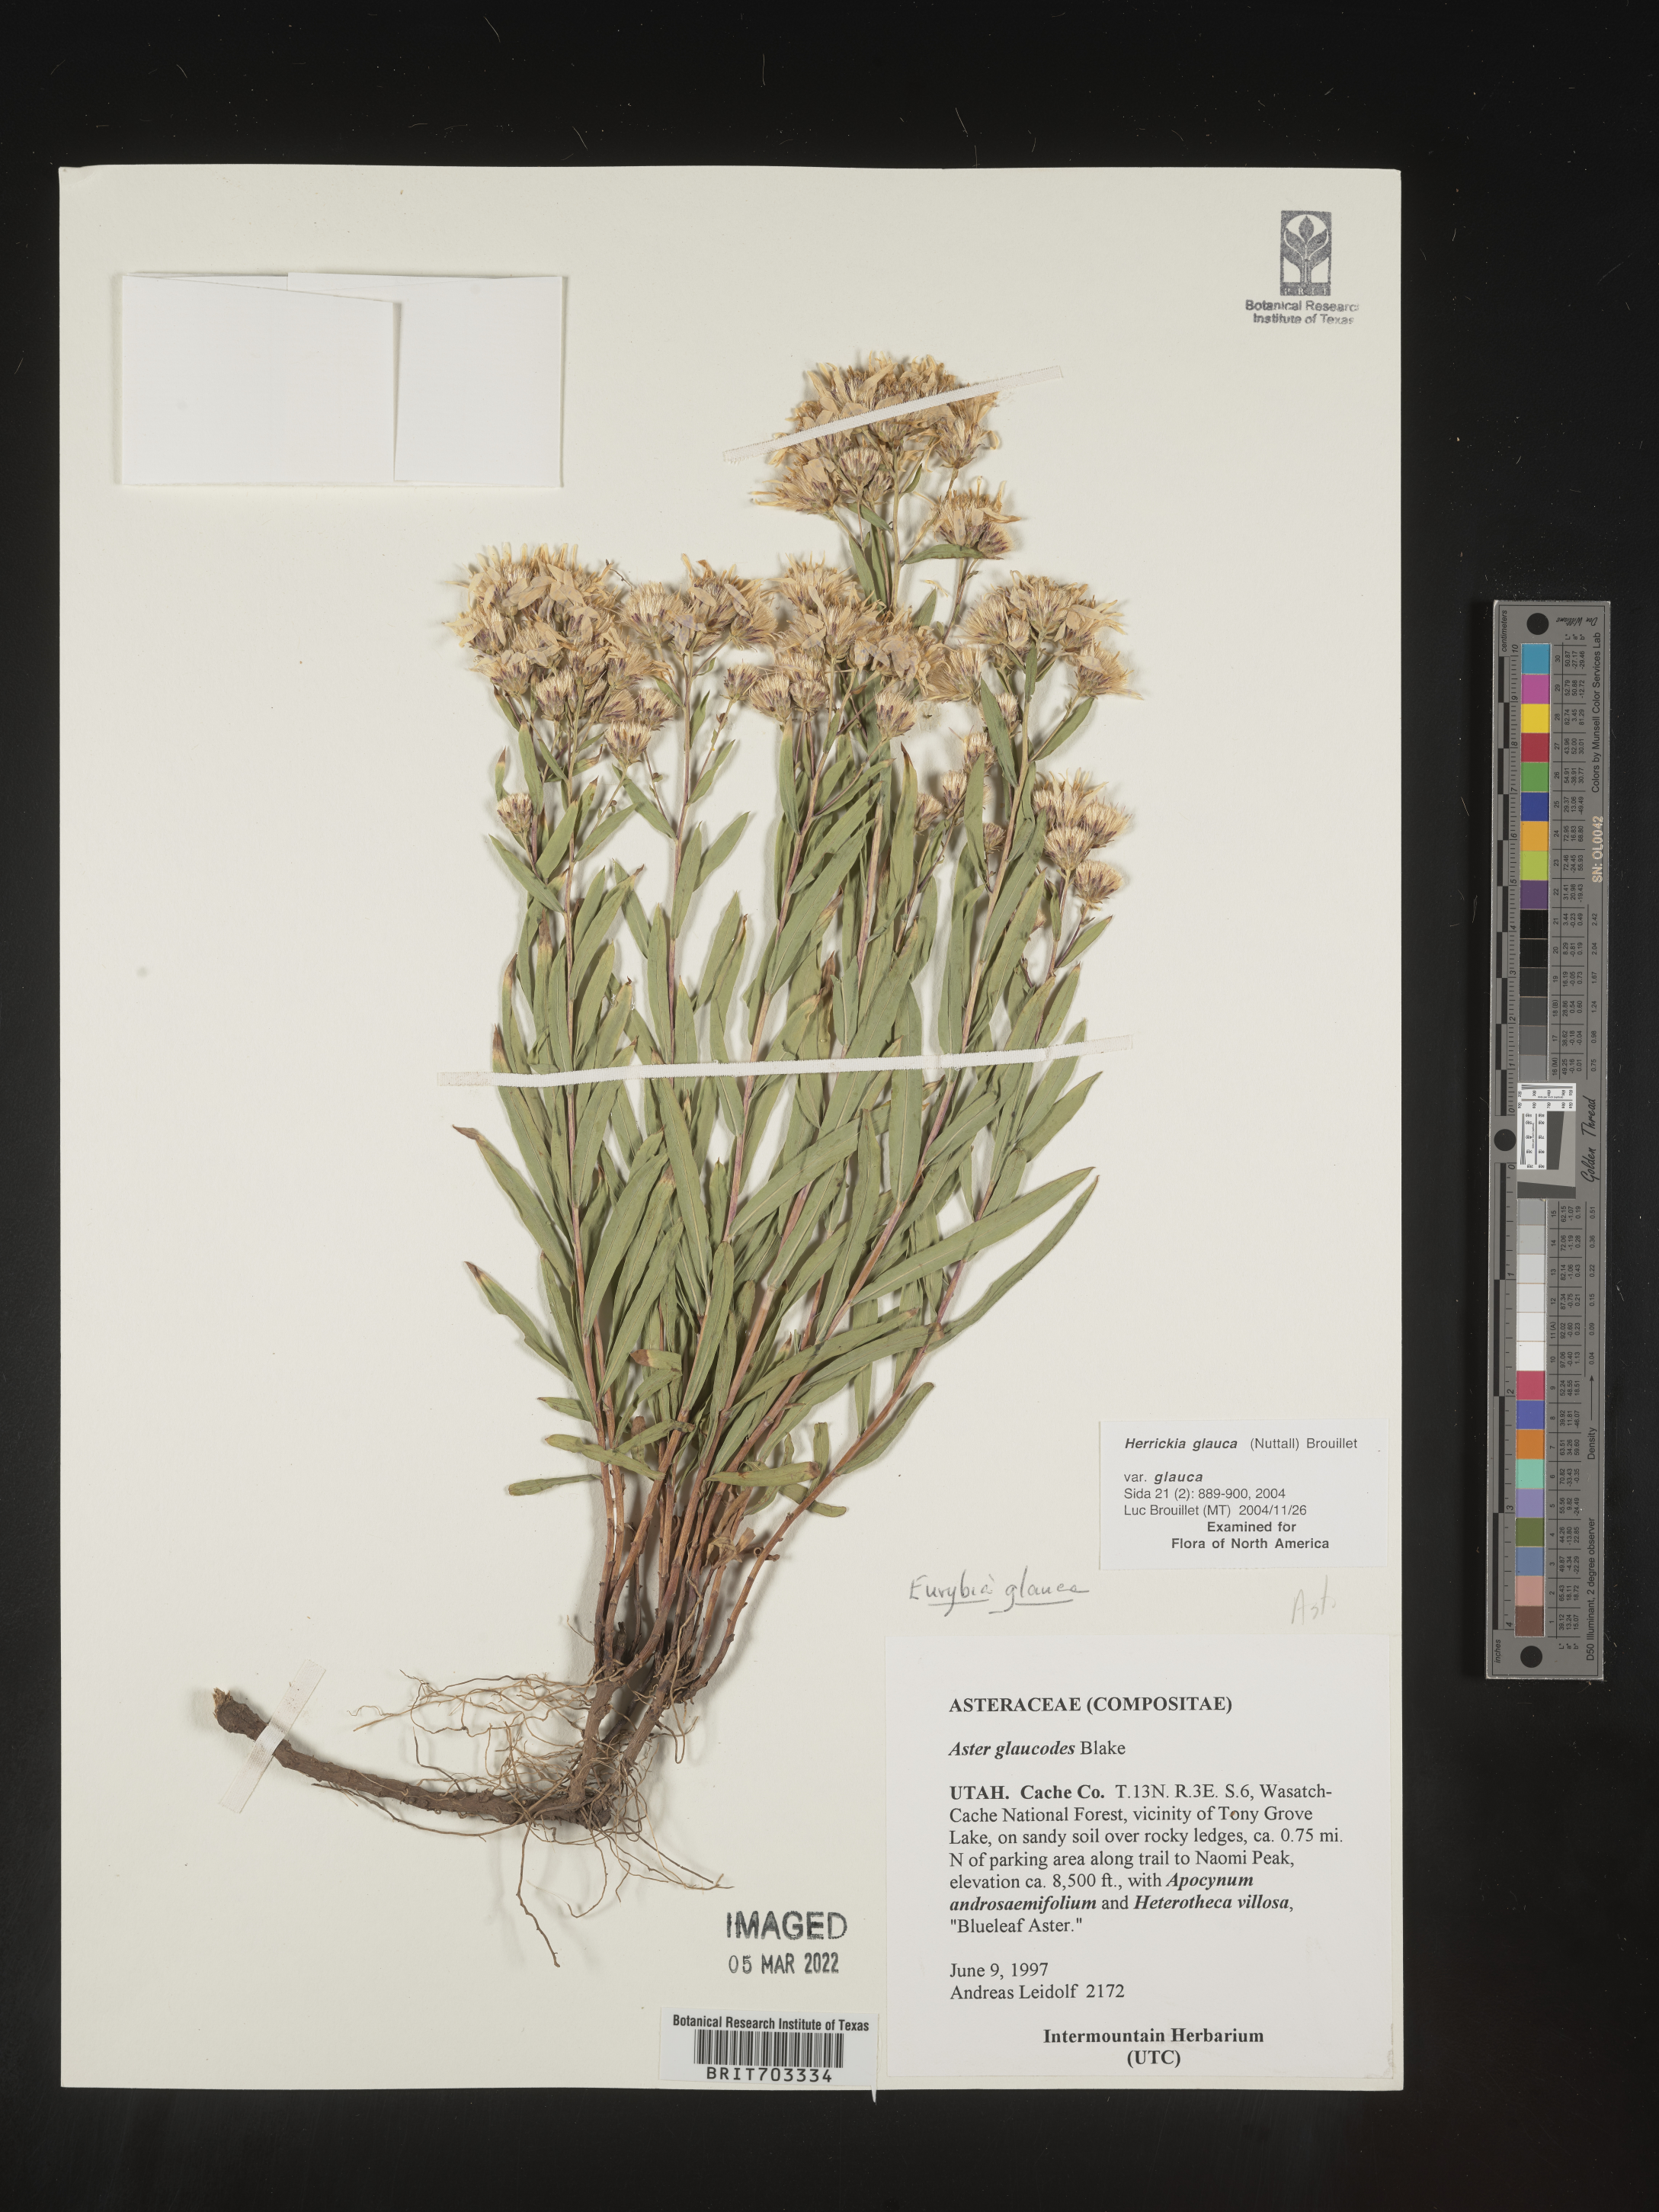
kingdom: Plantae
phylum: Tracheophyta
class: Magnoliopsida
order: Asterales
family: Asteraceae
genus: Eurybia
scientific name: Eurybia glauca
